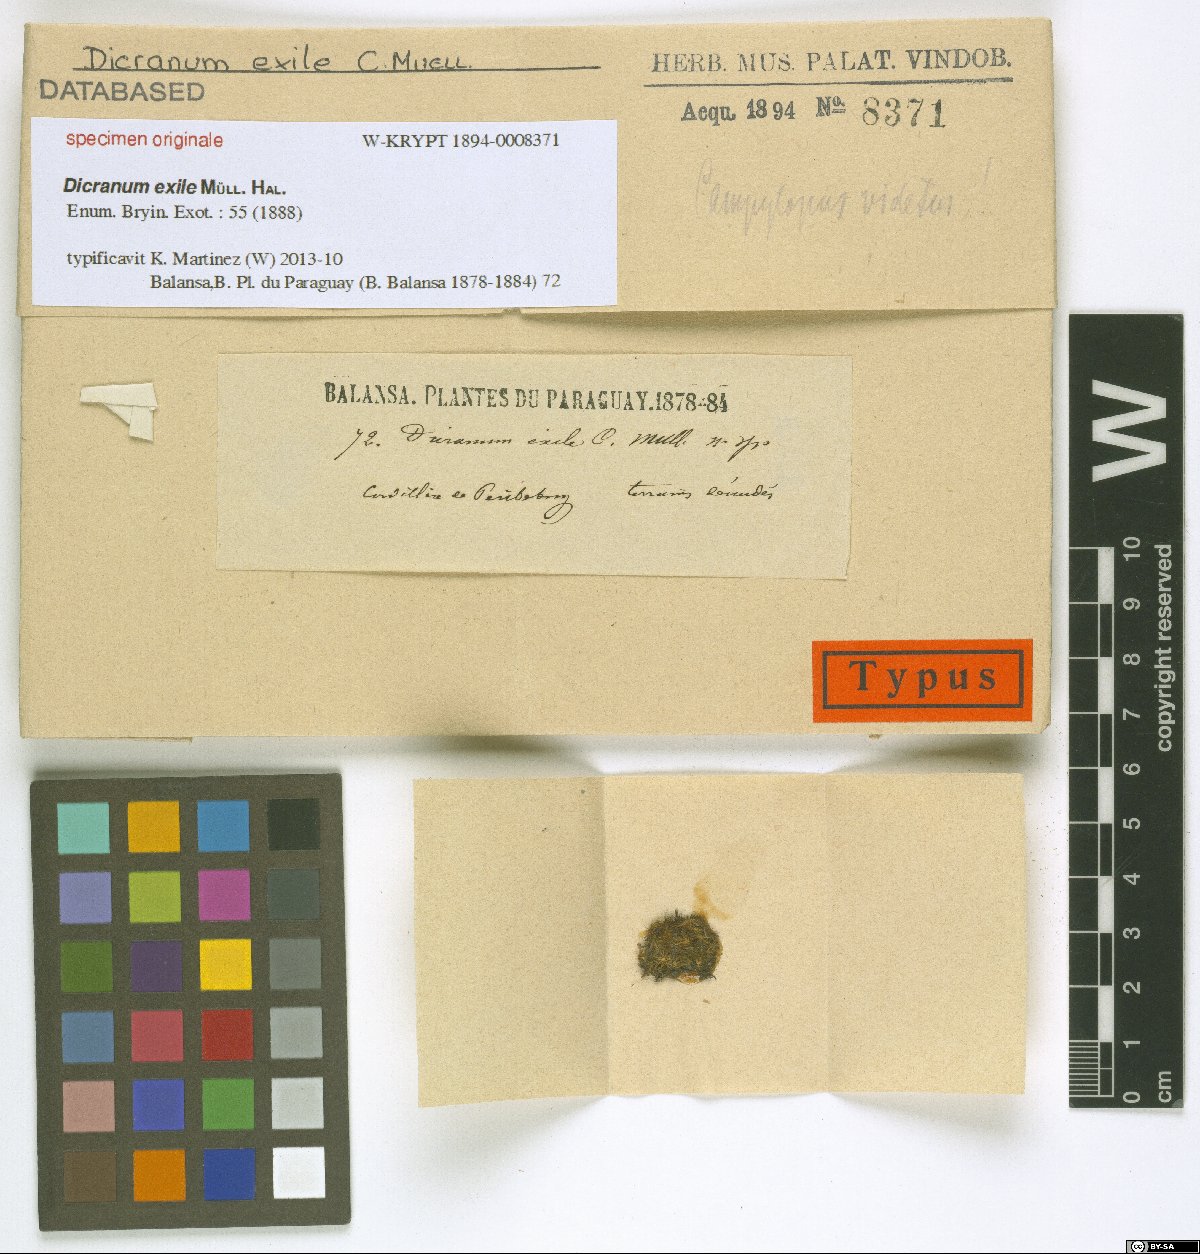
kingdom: Plantae
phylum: Bryophyta
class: Bryopsida
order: Dicranales
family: Dicranaceae
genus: Dicranum
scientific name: Dicranum
